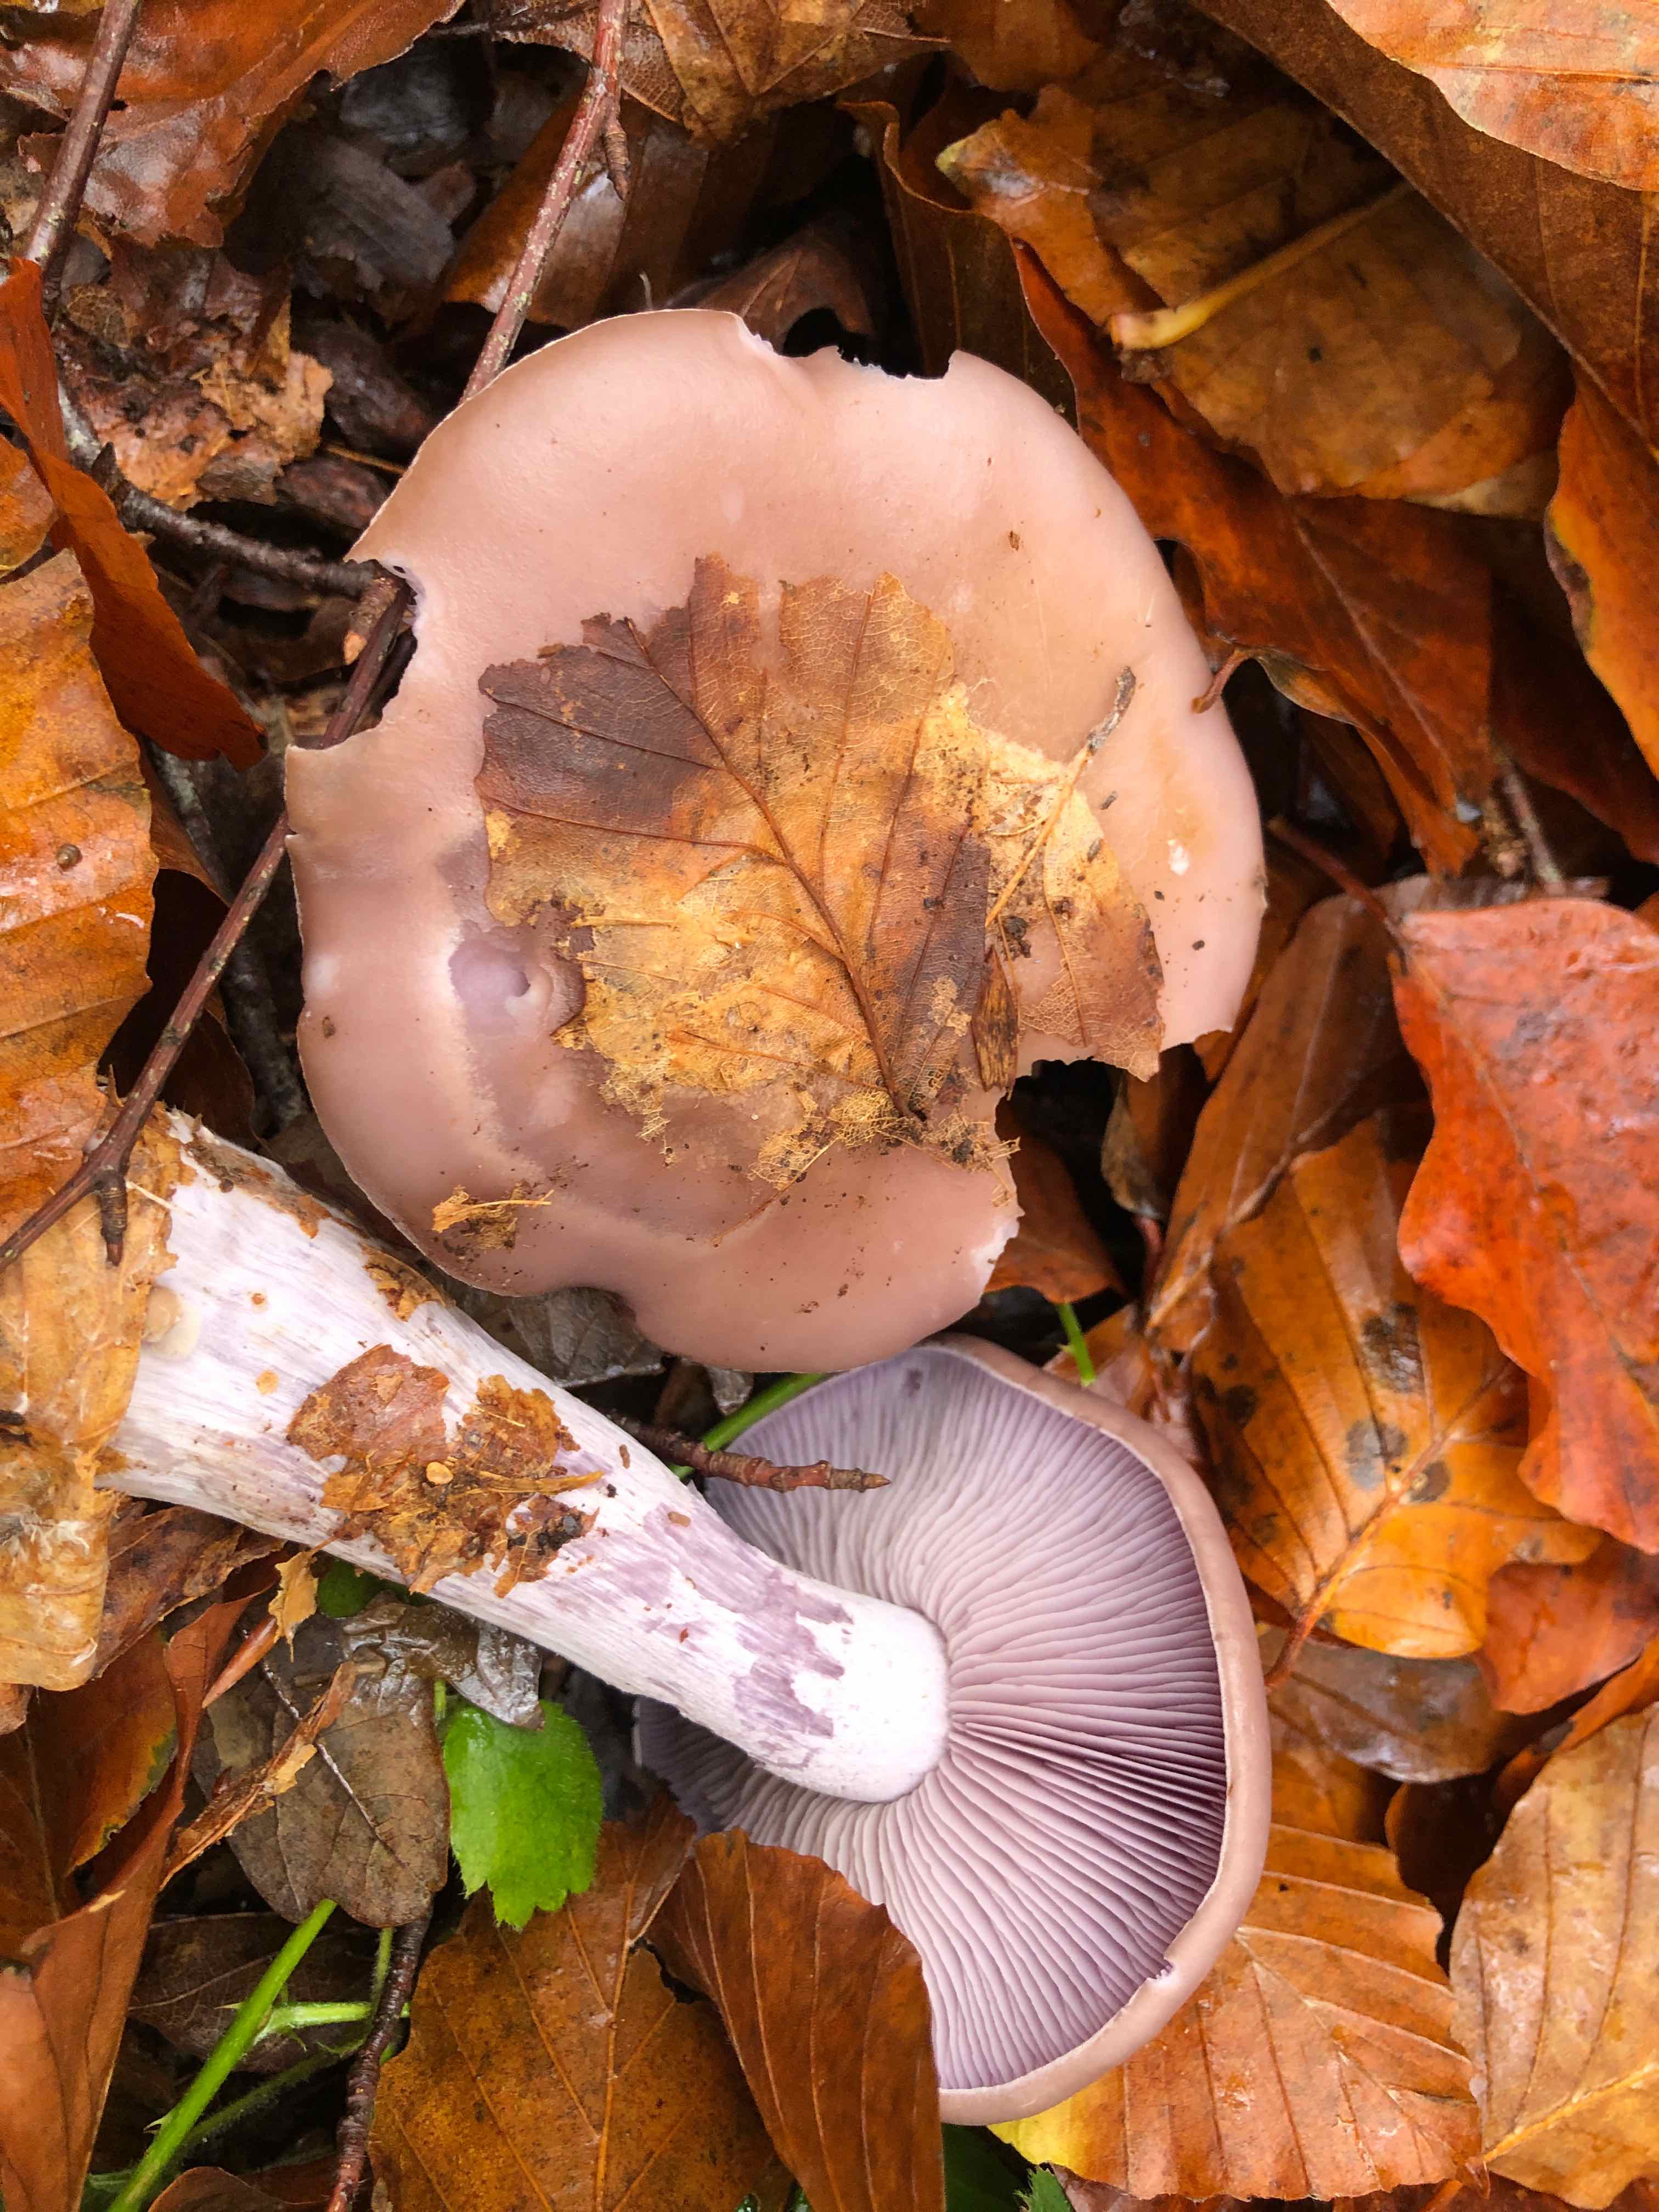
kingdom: Fungi
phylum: Basidiomycota
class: Agaricomycetes
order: Agaricales
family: Tricholomataceae
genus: Lepista
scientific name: Lepista nuda
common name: violet hekseringshat
